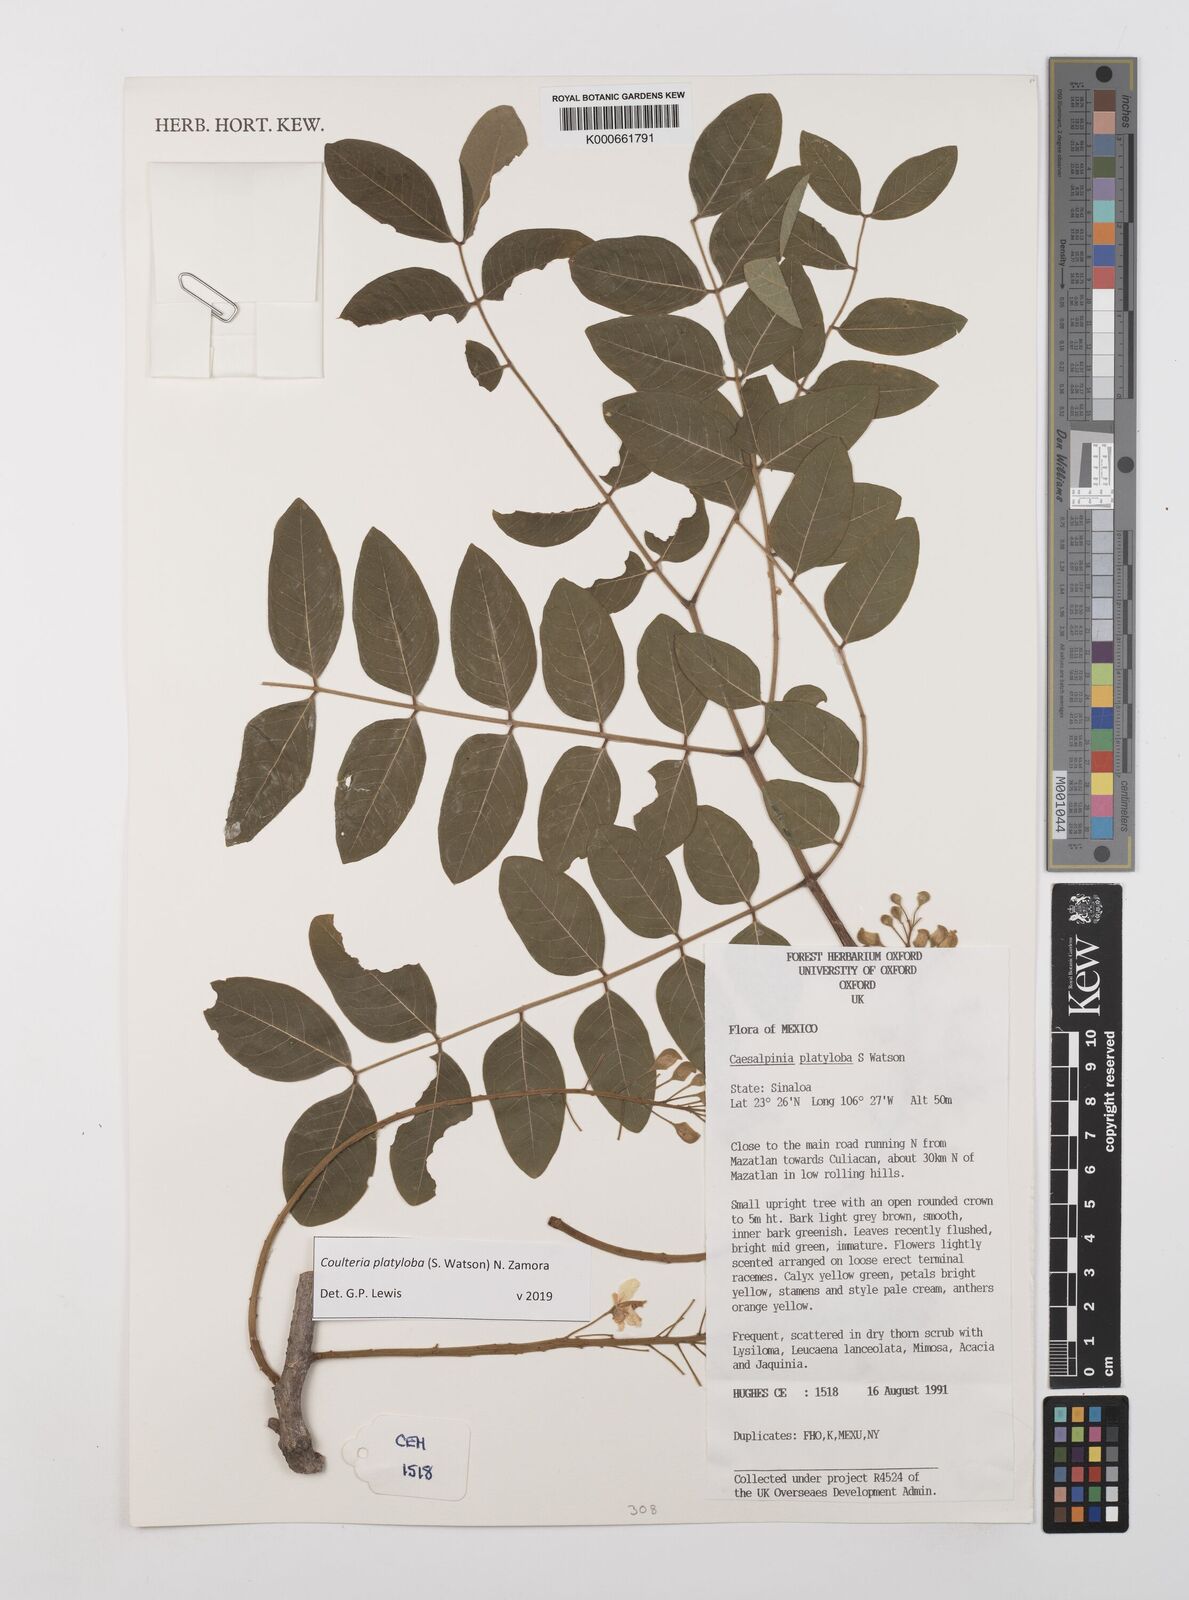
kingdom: Plantae
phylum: Tracheophyta
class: Magnoliopsida
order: Fabales
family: Fabaceae
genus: Coulteria
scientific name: Coulteria platyloba
